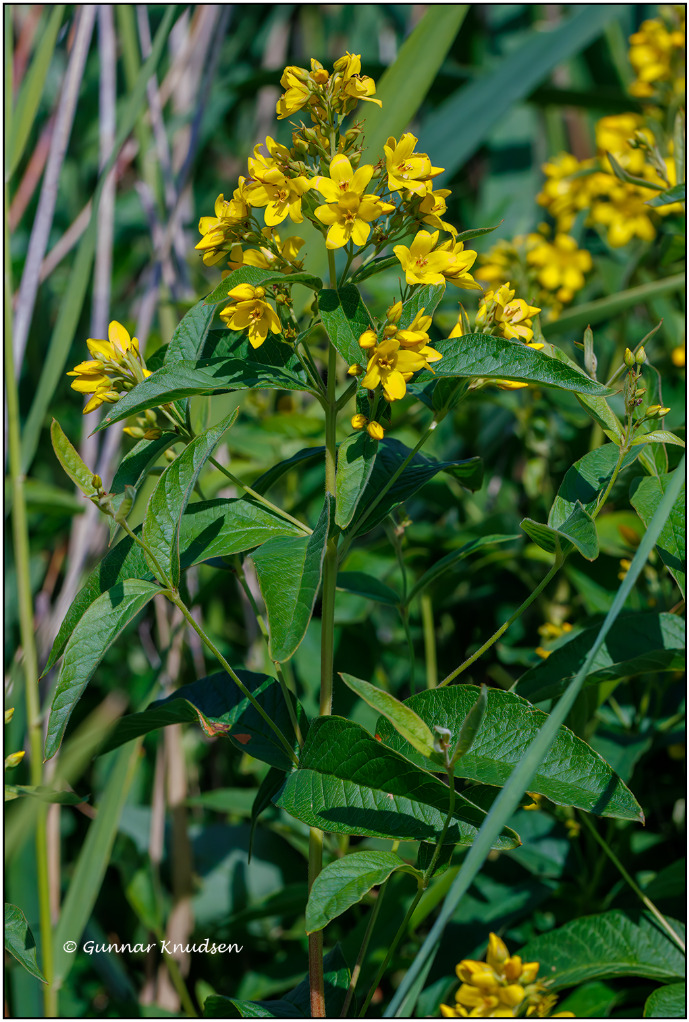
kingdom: Plantae
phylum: Tracheophyta
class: Magnoliopsida
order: Ericales
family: Primulaceae
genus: Lysimachia
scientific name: Lysimachia vulgaris
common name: Almindelig fredløs
